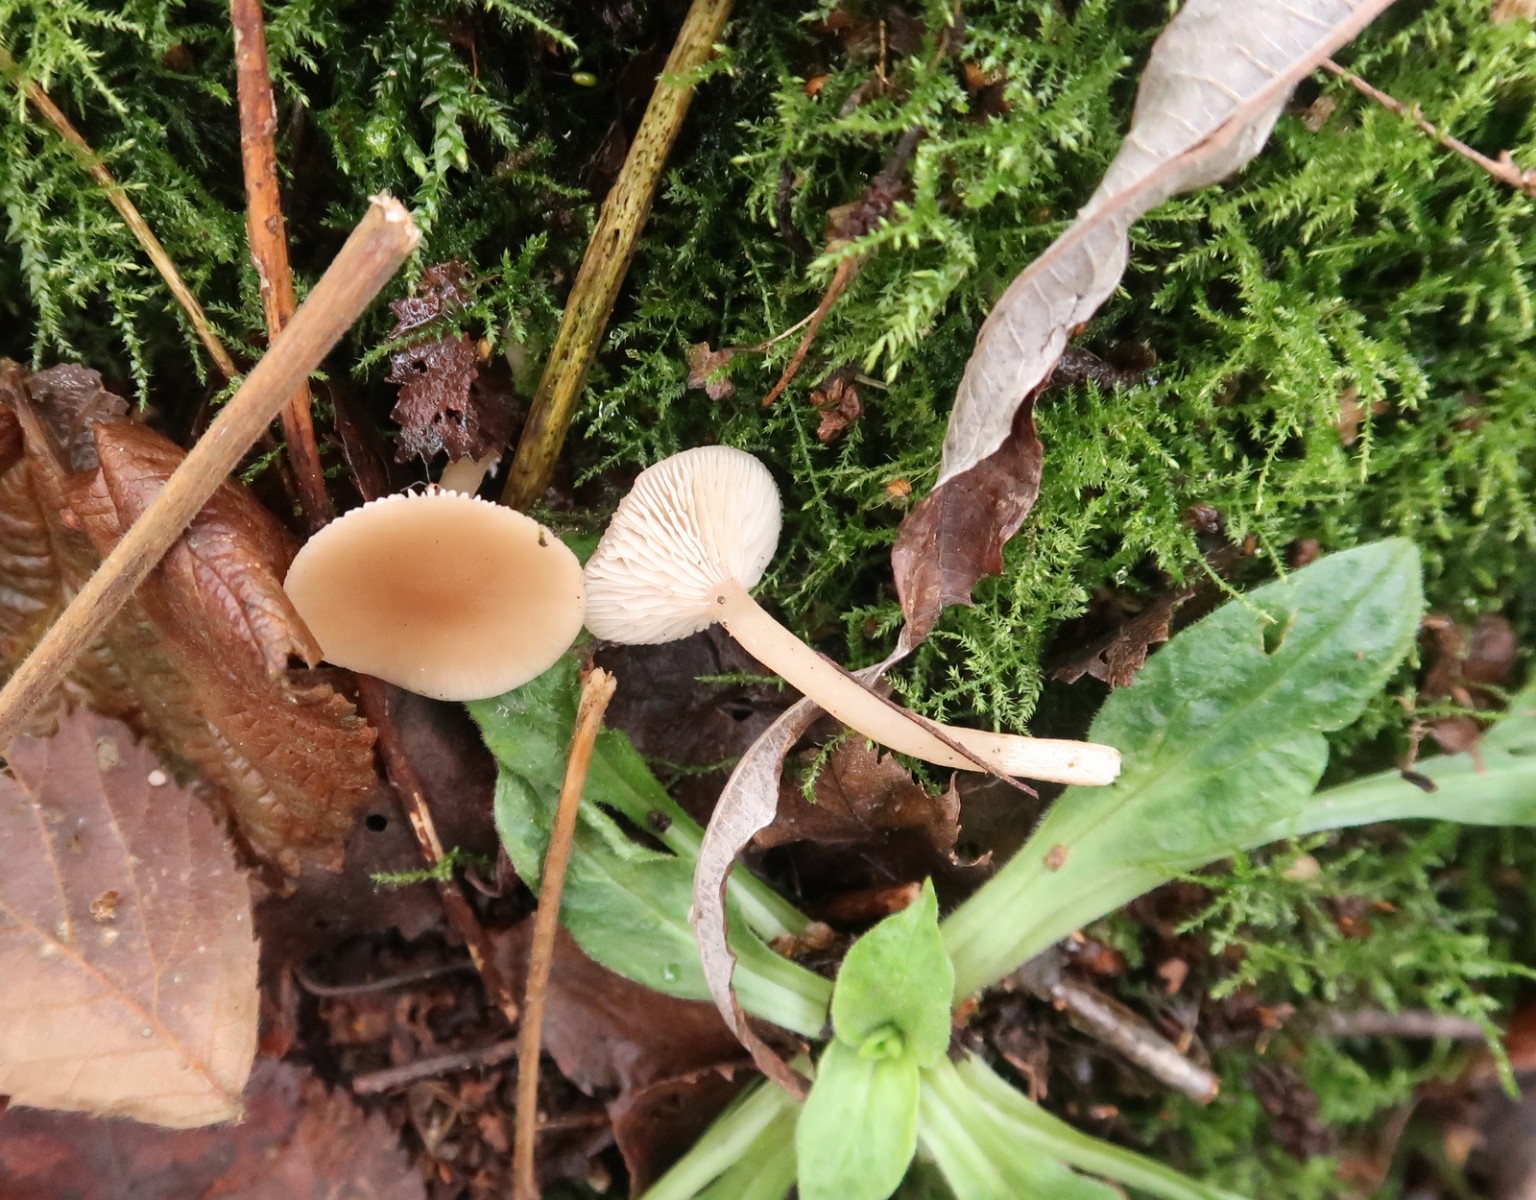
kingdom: Fungi
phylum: Basidiomycota
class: Agaricomycetes
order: Agaricales
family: Tricholomataceae
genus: Clitocybe
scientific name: Clitocybe fragrans
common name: vellugtende tragthat
